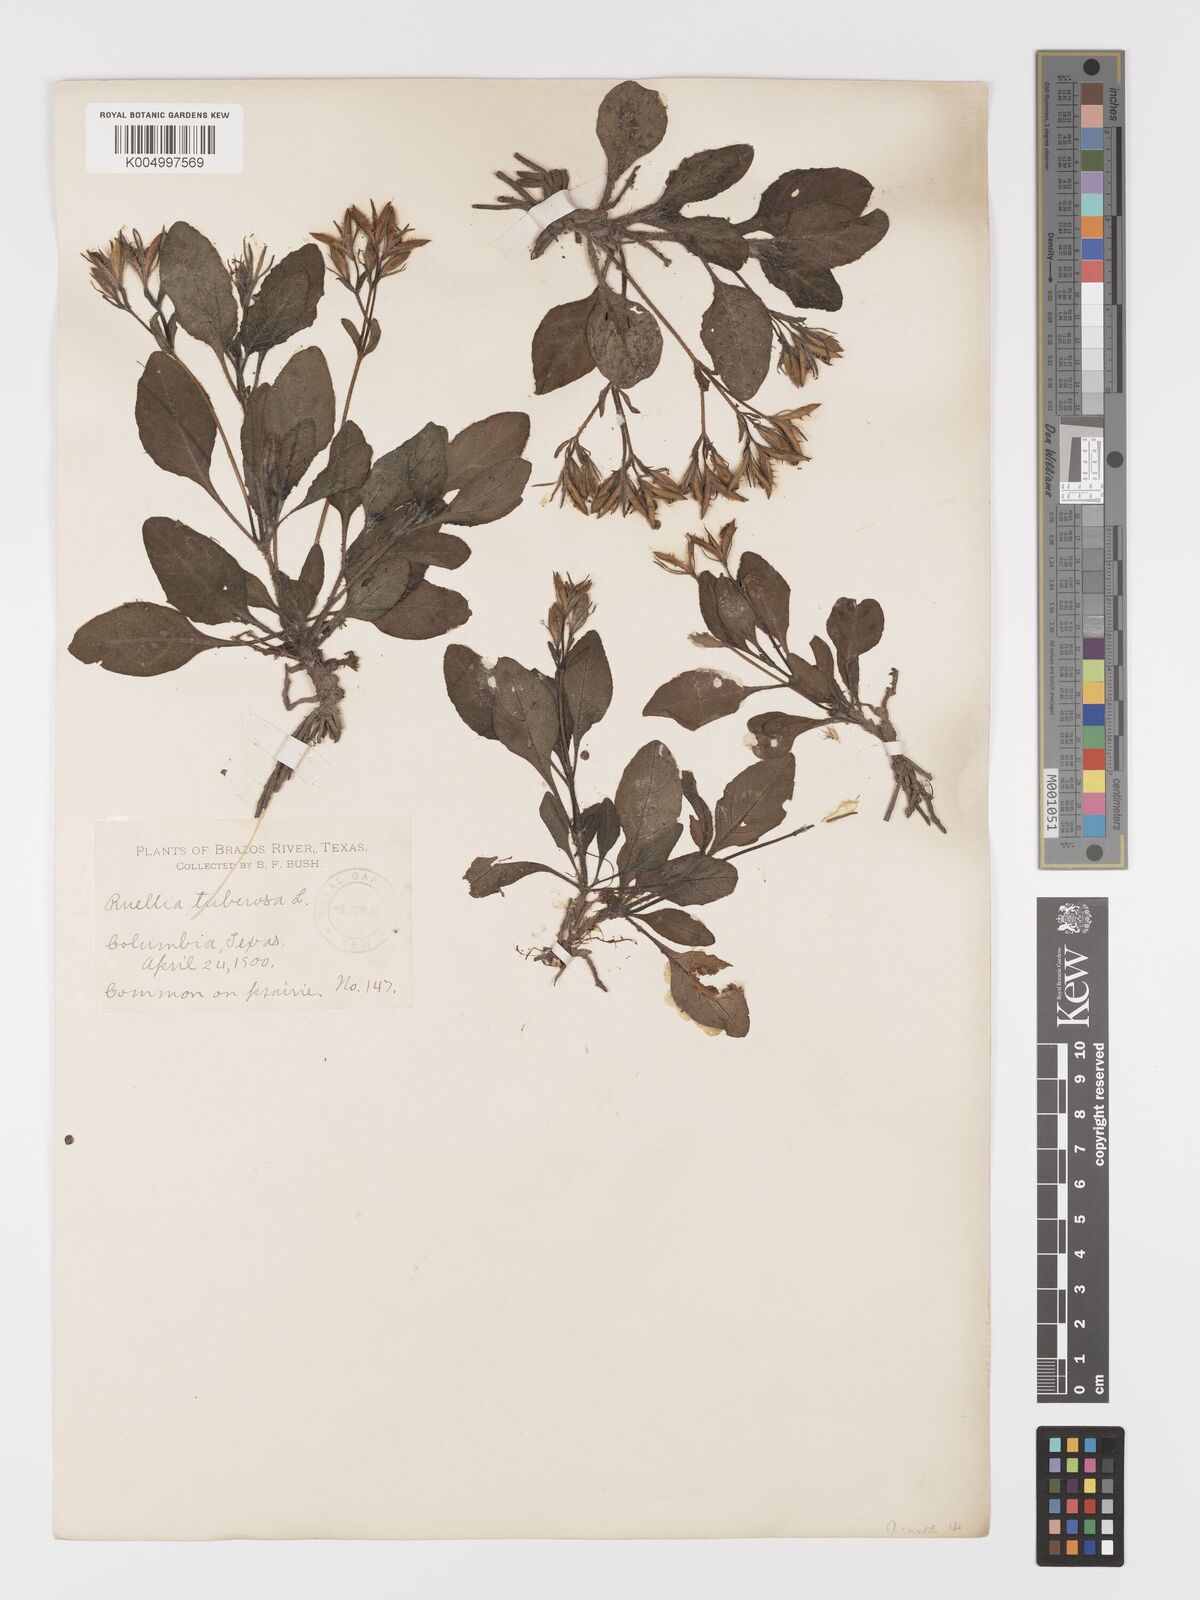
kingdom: Plantae
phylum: Tracheophyta
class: Magnoliopsida
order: Lamiales
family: Acanthaceae
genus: Ruellia
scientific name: Ruellia tuberosa
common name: Devil's bit
